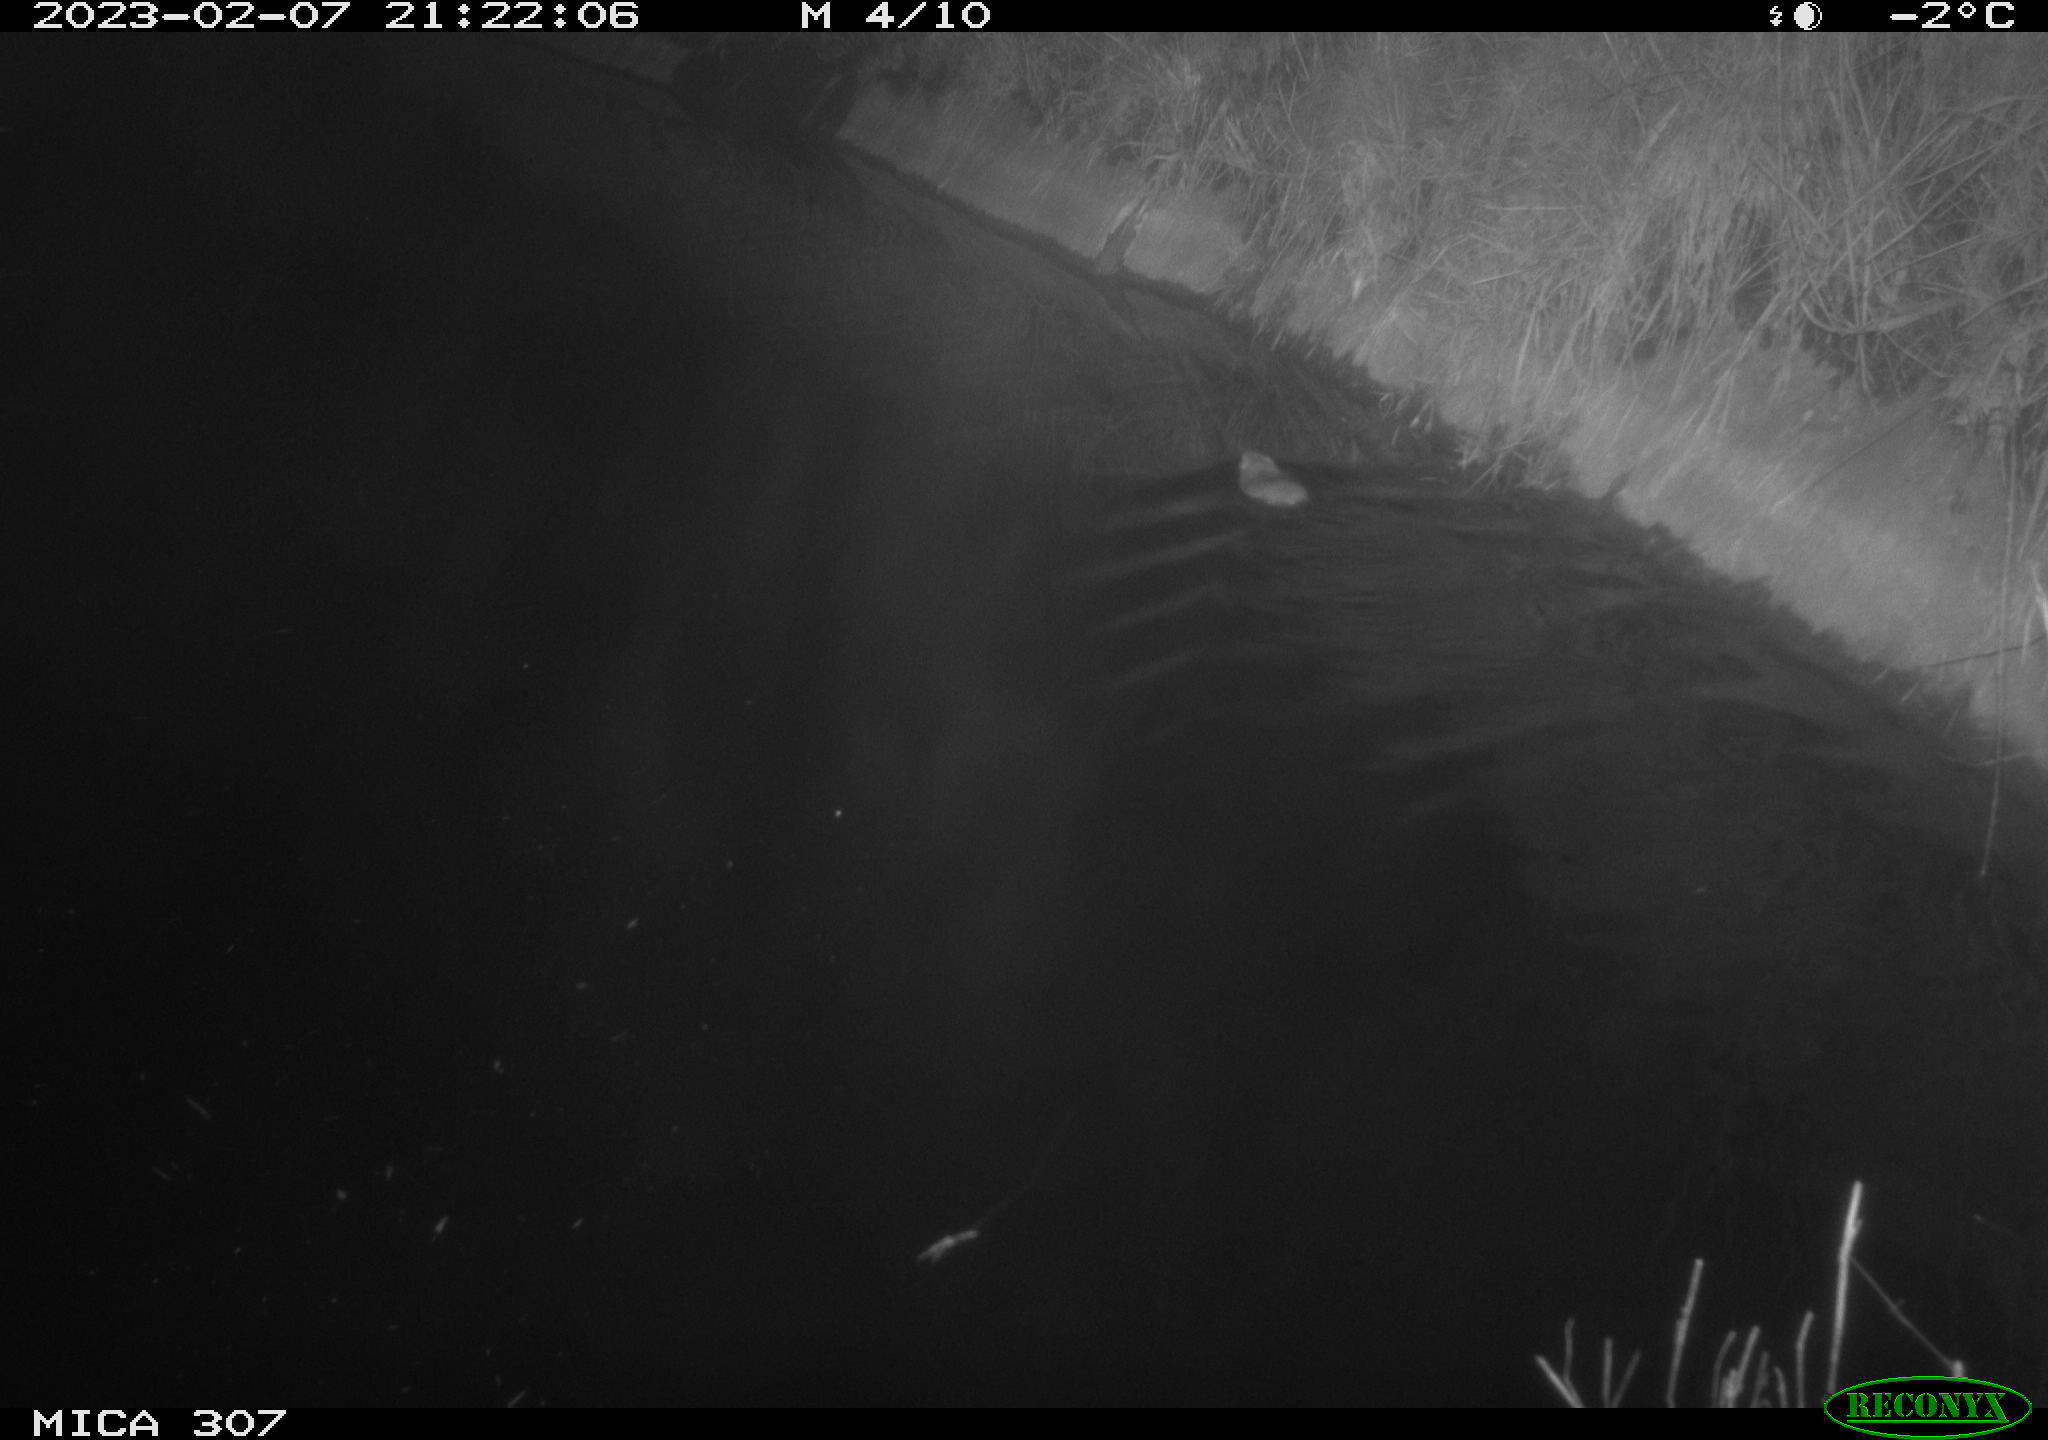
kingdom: Animalia
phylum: Chordata
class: Mammalia
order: Rodentia
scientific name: Rodentia
